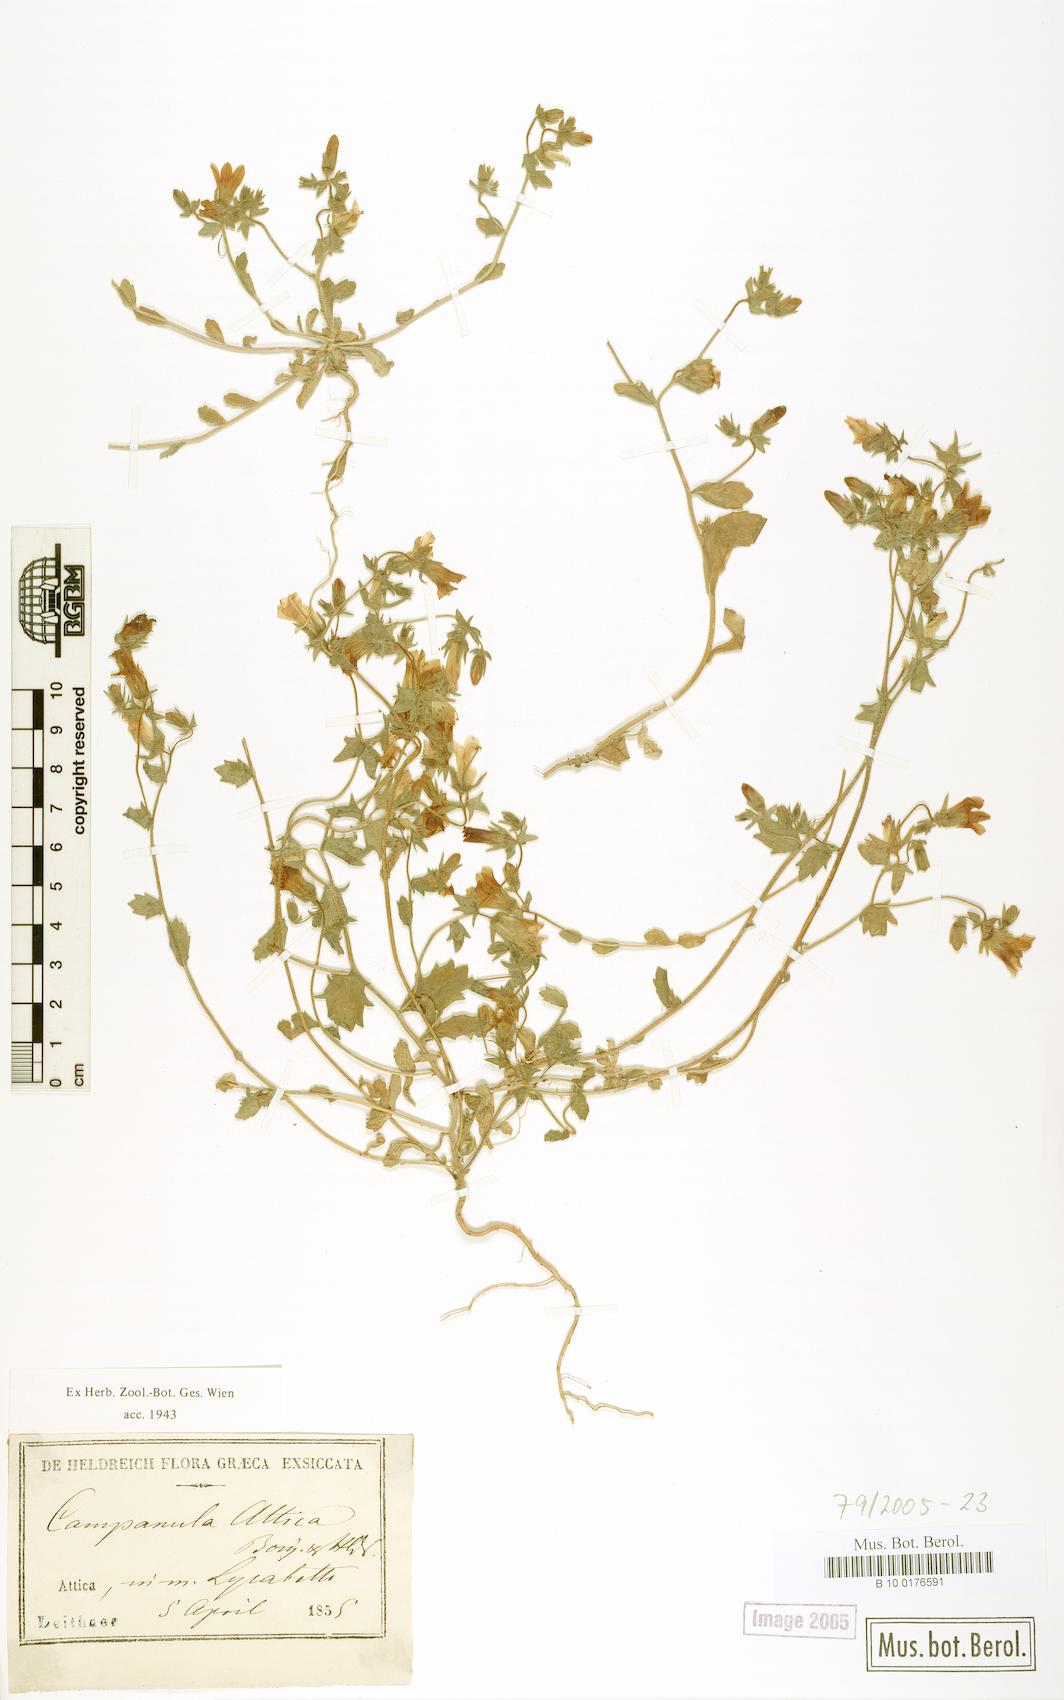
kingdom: Plantae
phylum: Tracheophyta
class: Magnoliopsida
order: Asterales
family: Campanulaceae
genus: Campanula
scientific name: Campanula drabifolia
